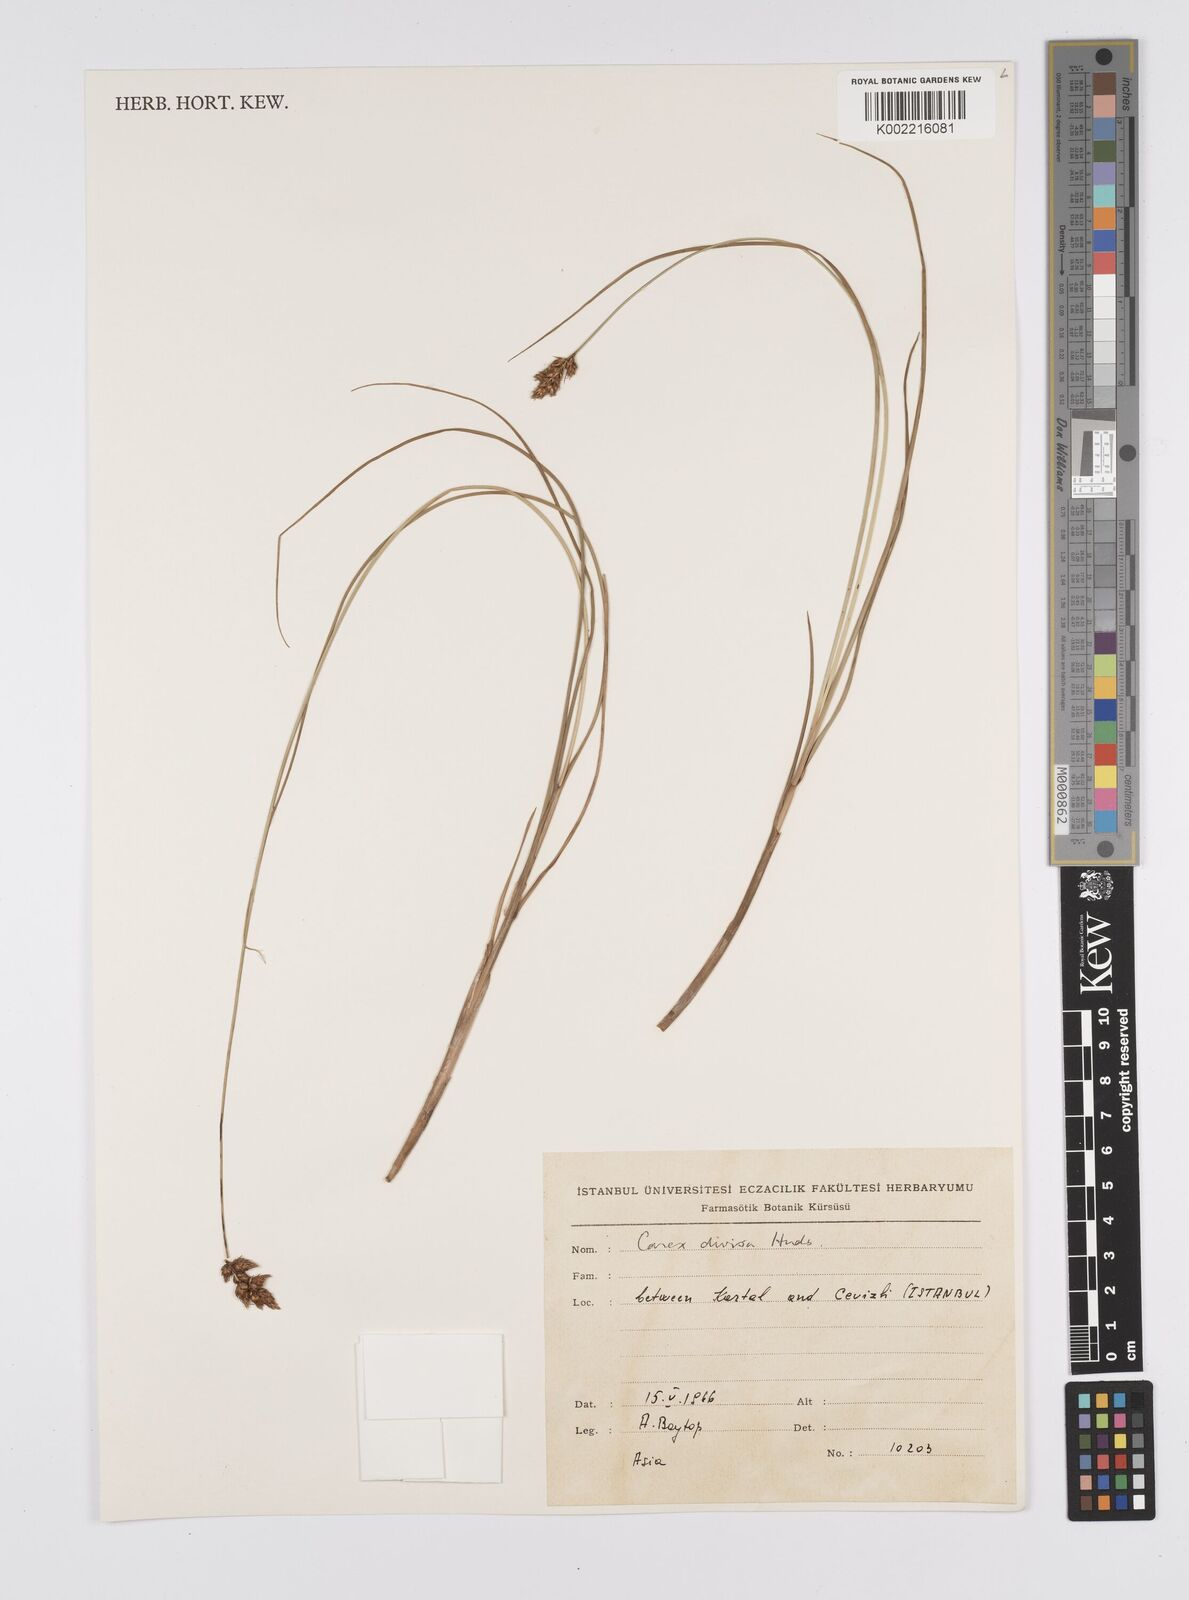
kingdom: Plantae
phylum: Tracheophyta
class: Liliopsida
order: Poales
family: Cyperaceae
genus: Carex
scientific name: Carex divisa
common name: Divided sedge
